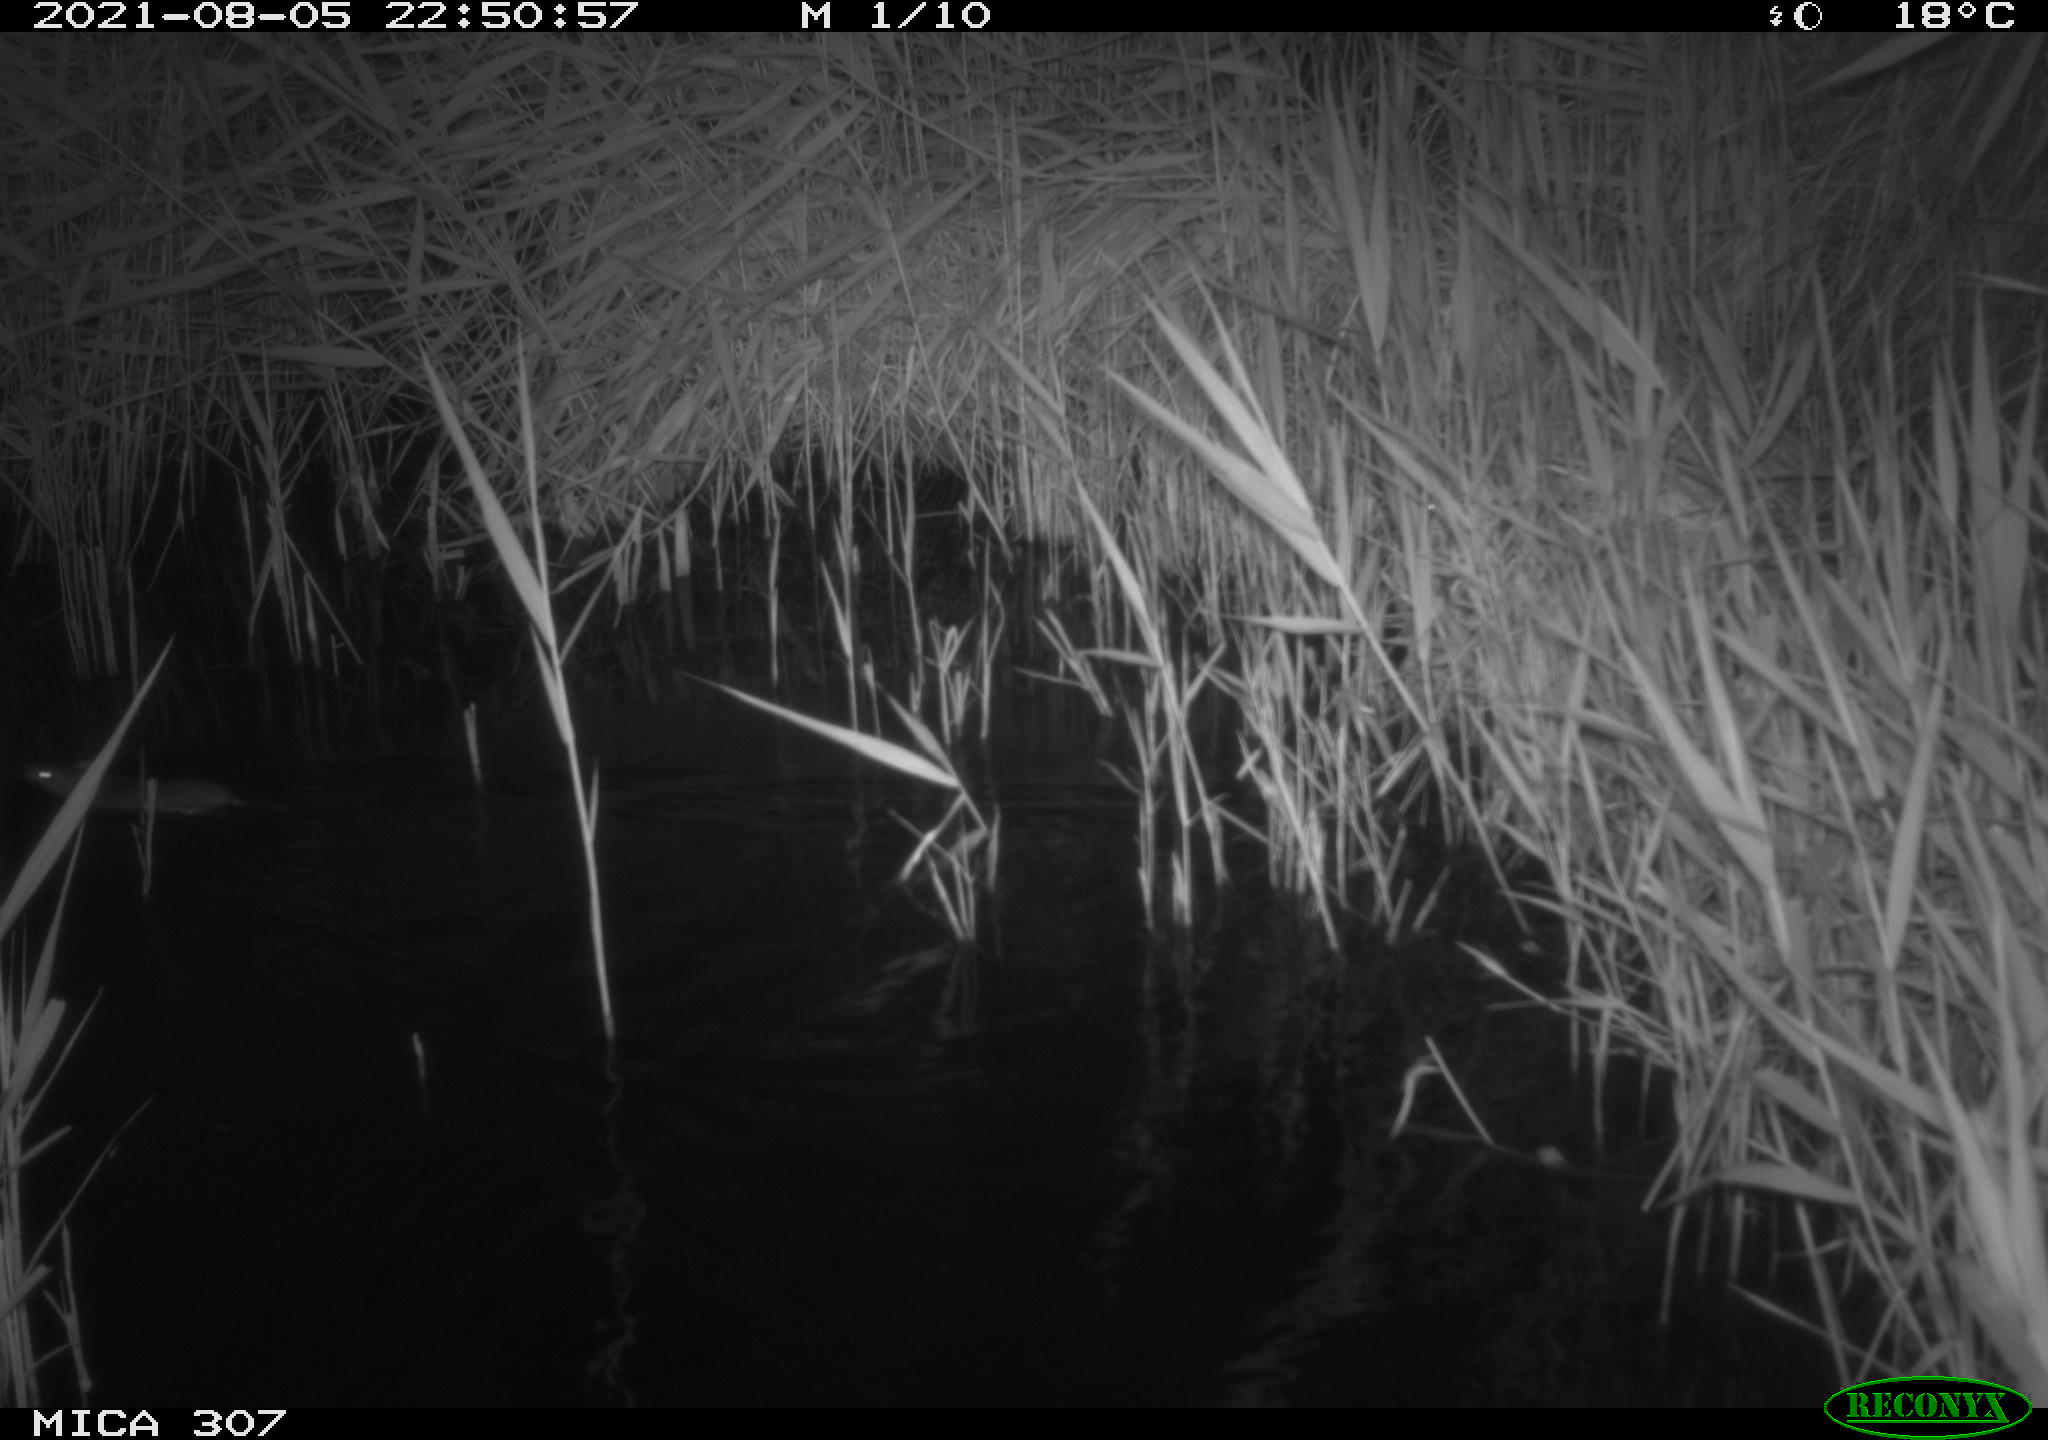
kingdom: Animalia
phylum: Chordata
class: Mammalia
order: Rodentia
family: Muridae
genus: Rattus
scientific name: Rattus norvegicus
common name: Brown rat
